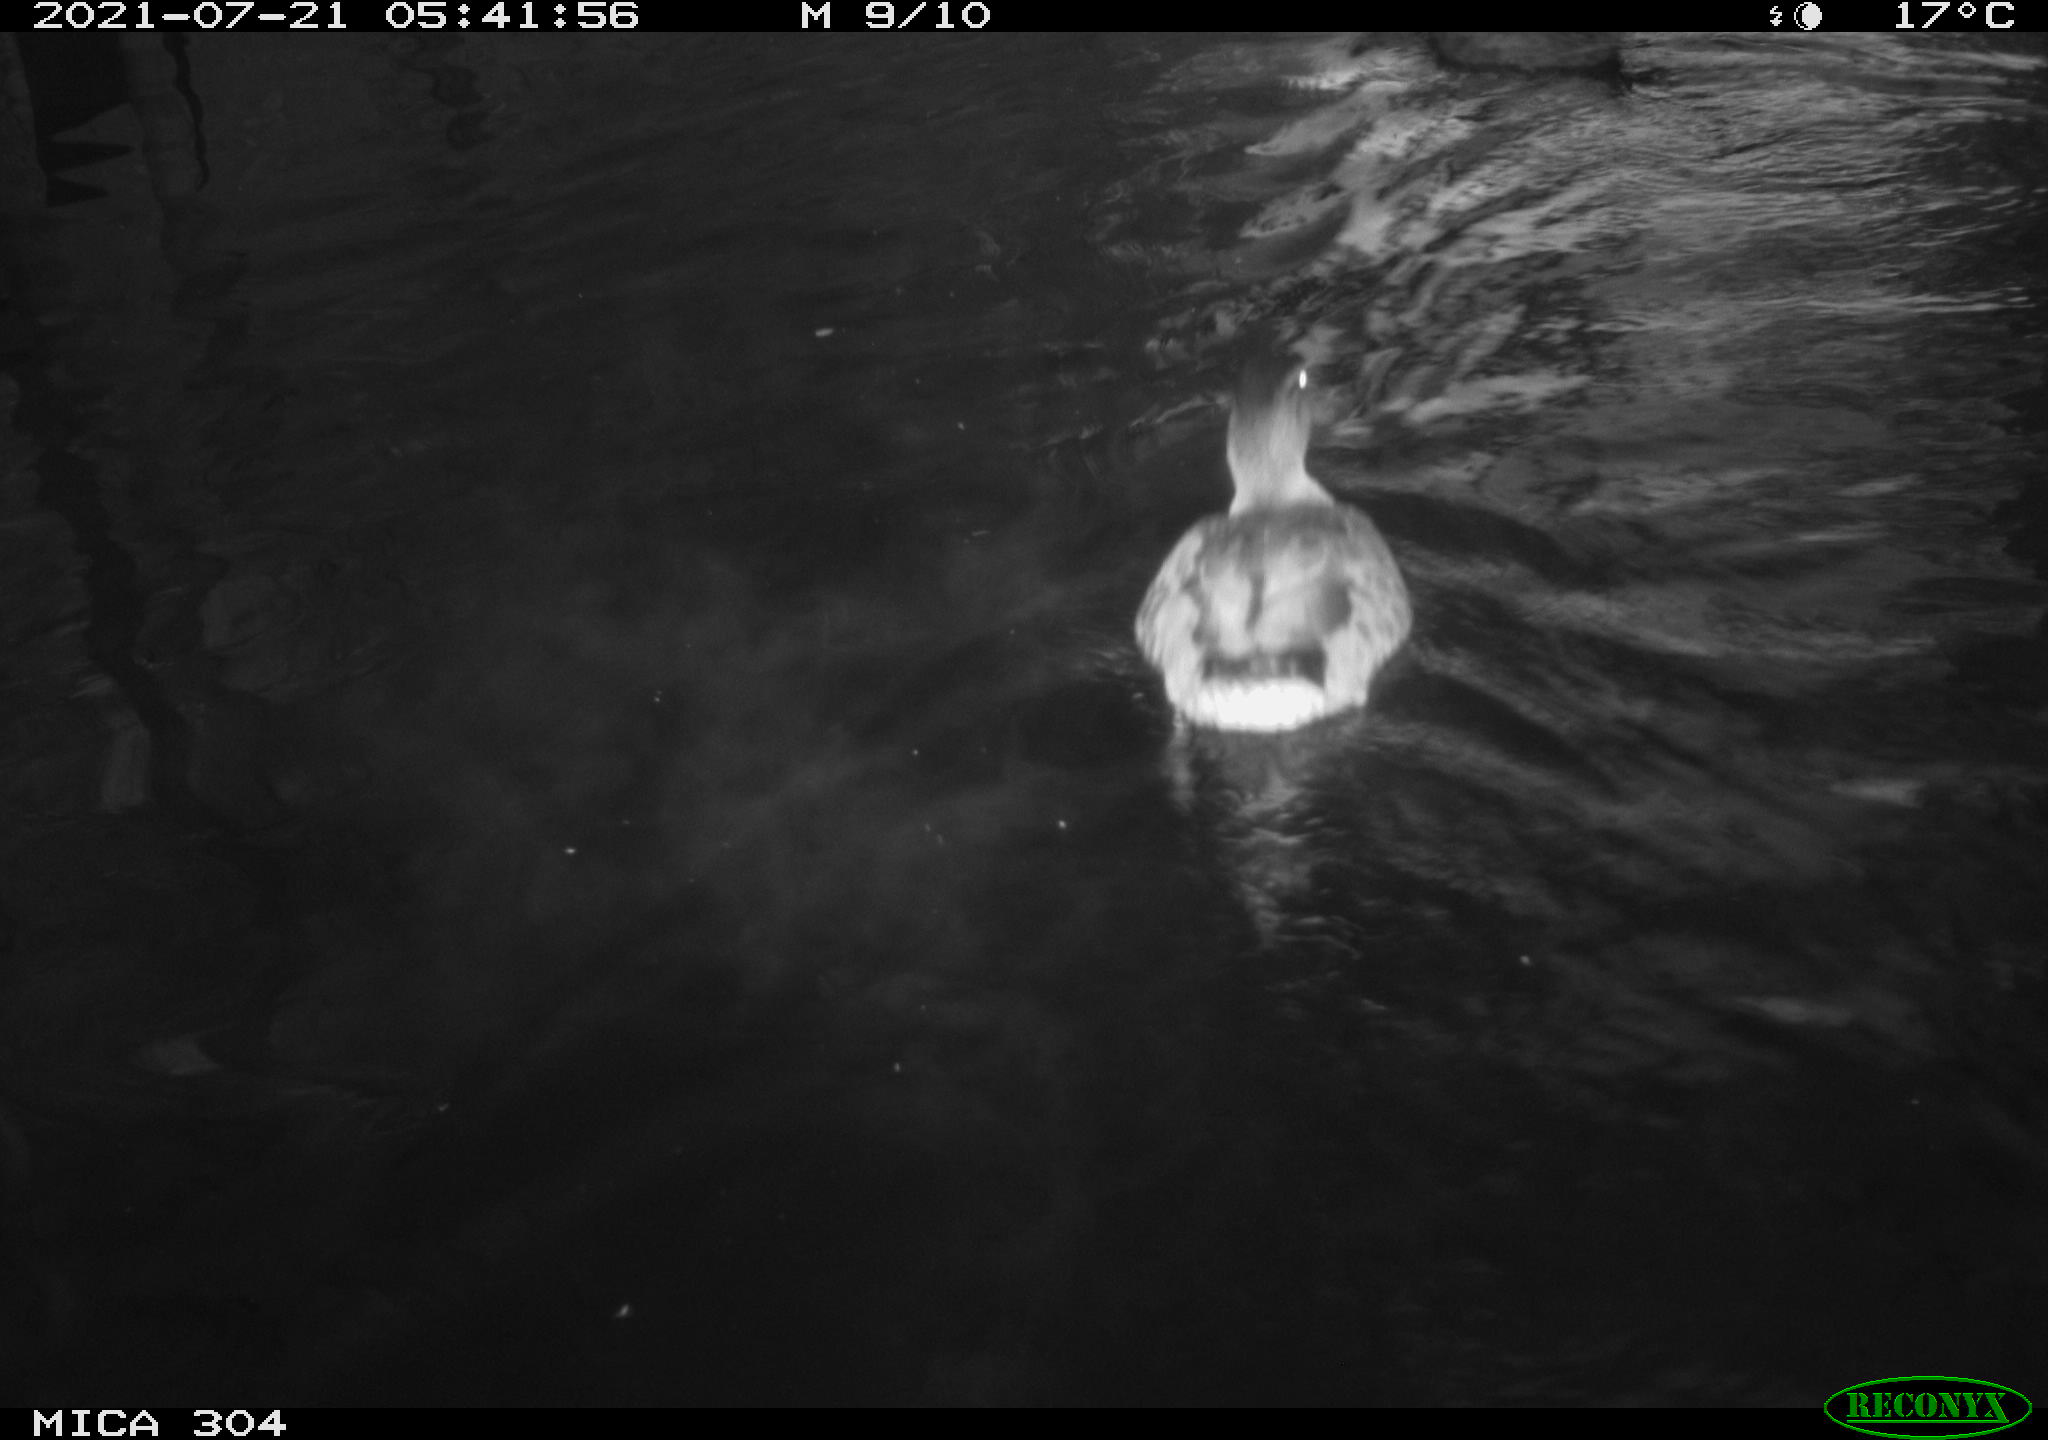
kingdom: Animalia
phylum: Chordata
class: Aves
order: Anseriformes
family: Anatidae
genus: Anas
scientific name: Anas platyrhynchos
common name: Mallard
